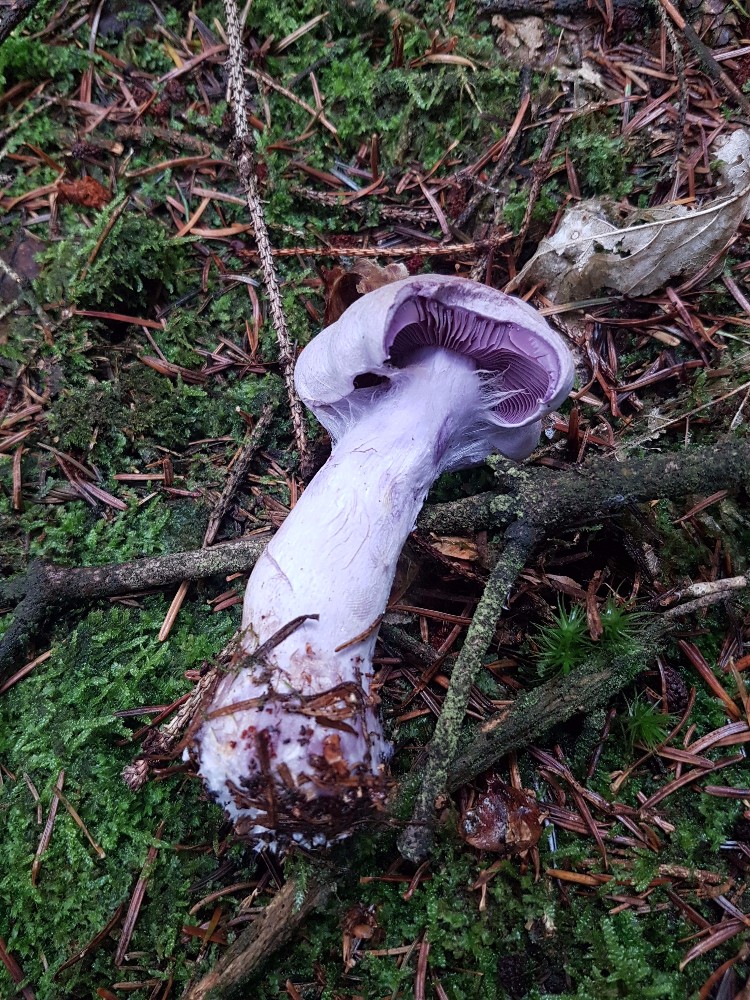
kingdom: Fungi
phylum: Basidiomycota
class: Agaricomycetes
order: Agaricales
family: Cortinariaceae
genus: Cortinarius
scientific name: Cortinarius camphoratus
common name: stinkende slørhat
